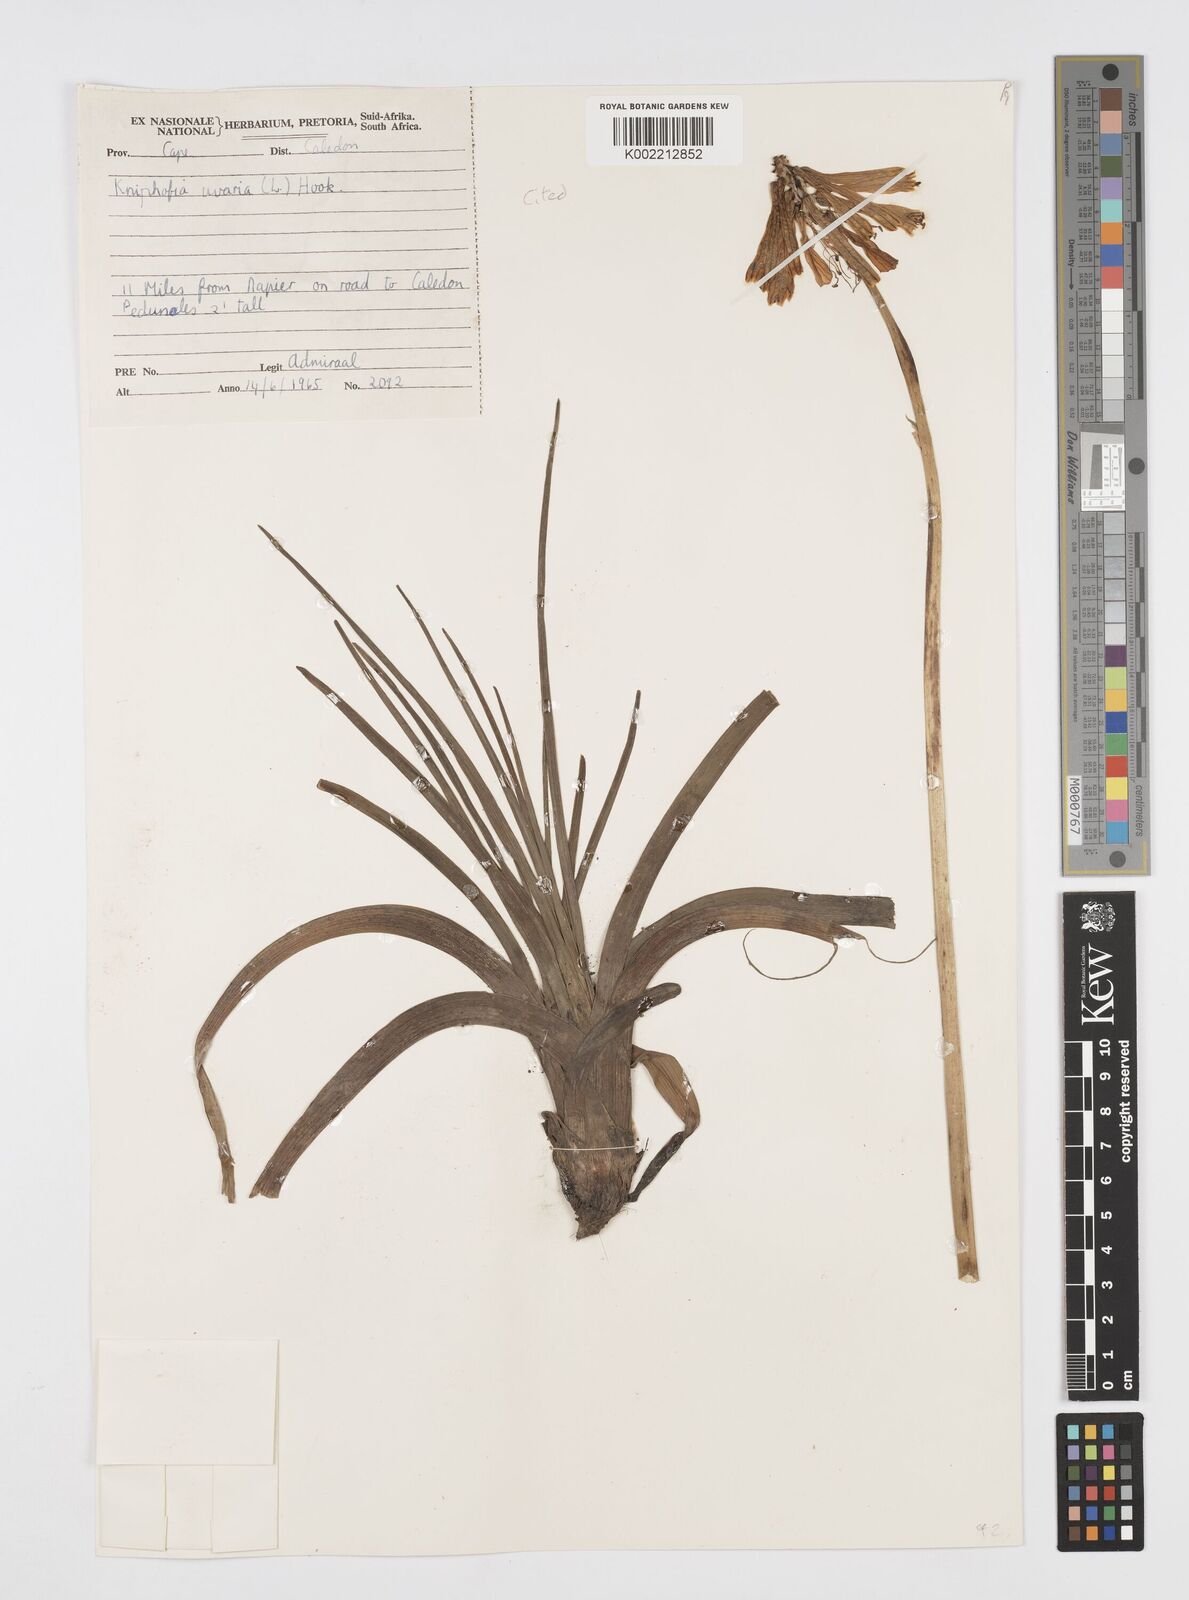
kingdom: Plantae
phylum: Tracheophyta
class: Liliopsida
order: Asparagales
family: Asphodelaceae
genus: Kniphofia
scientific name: Kniphofia uvaria
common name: Red-hot-poker
